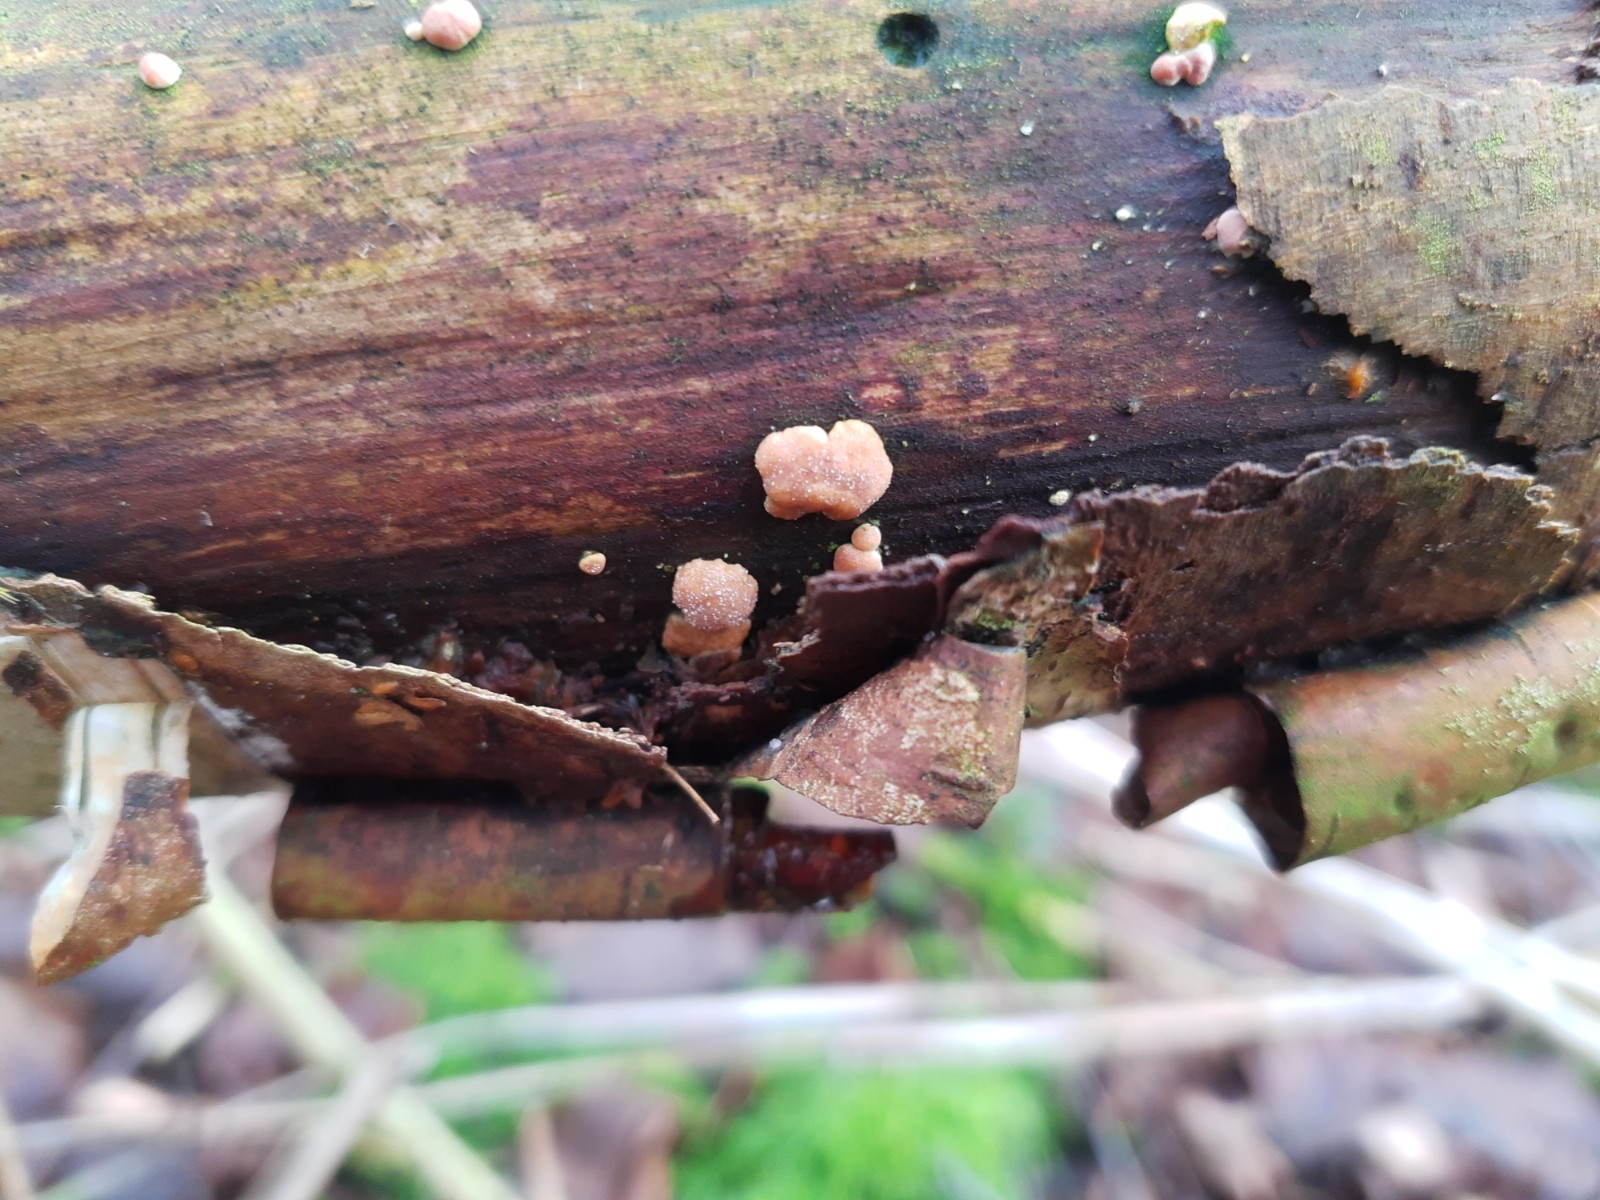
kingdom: Fungi
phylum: Ascomycota
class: Sordariomycetes
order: Hypocreales
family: Hypocreaceae
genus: Trichoderma
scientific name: Trichoderma europaeum
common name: rosabrun kødkerne
